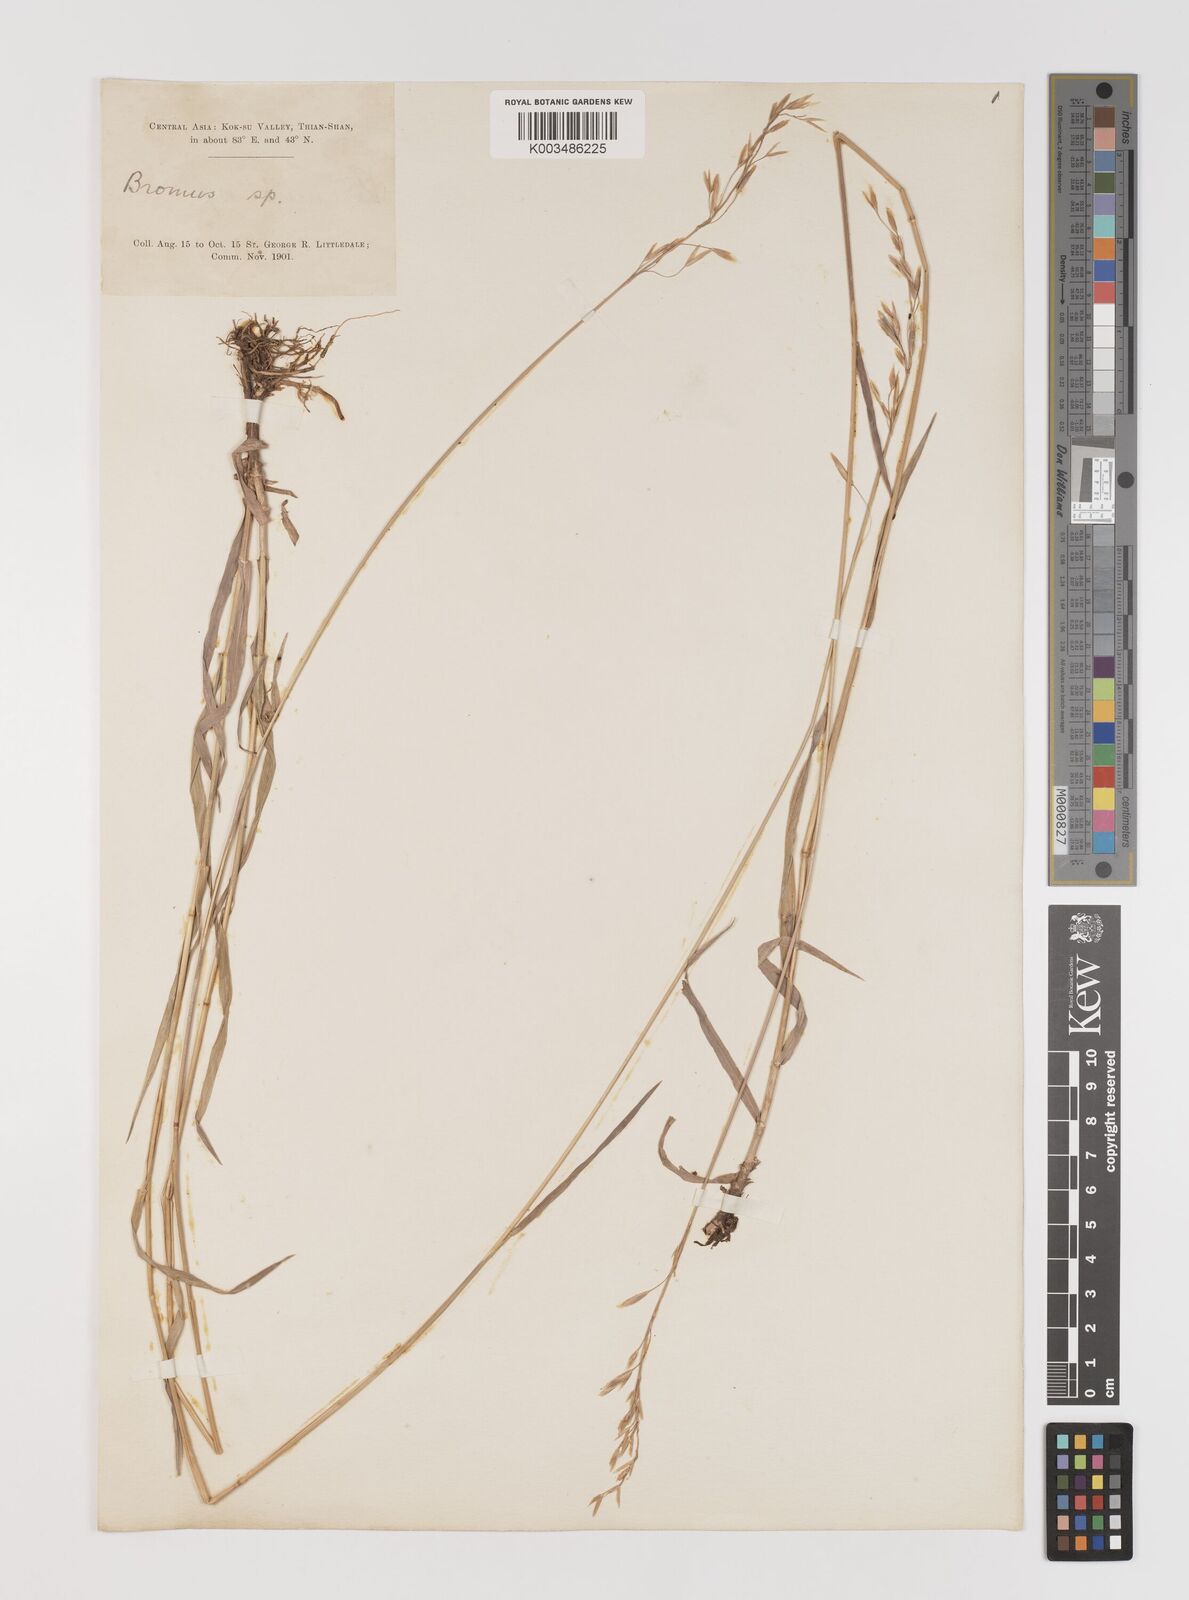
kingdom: Plantae
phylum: Tracheophyta
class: Liliopsida
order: Poales
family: Poaceae
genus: Bromus
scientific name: Bromus
